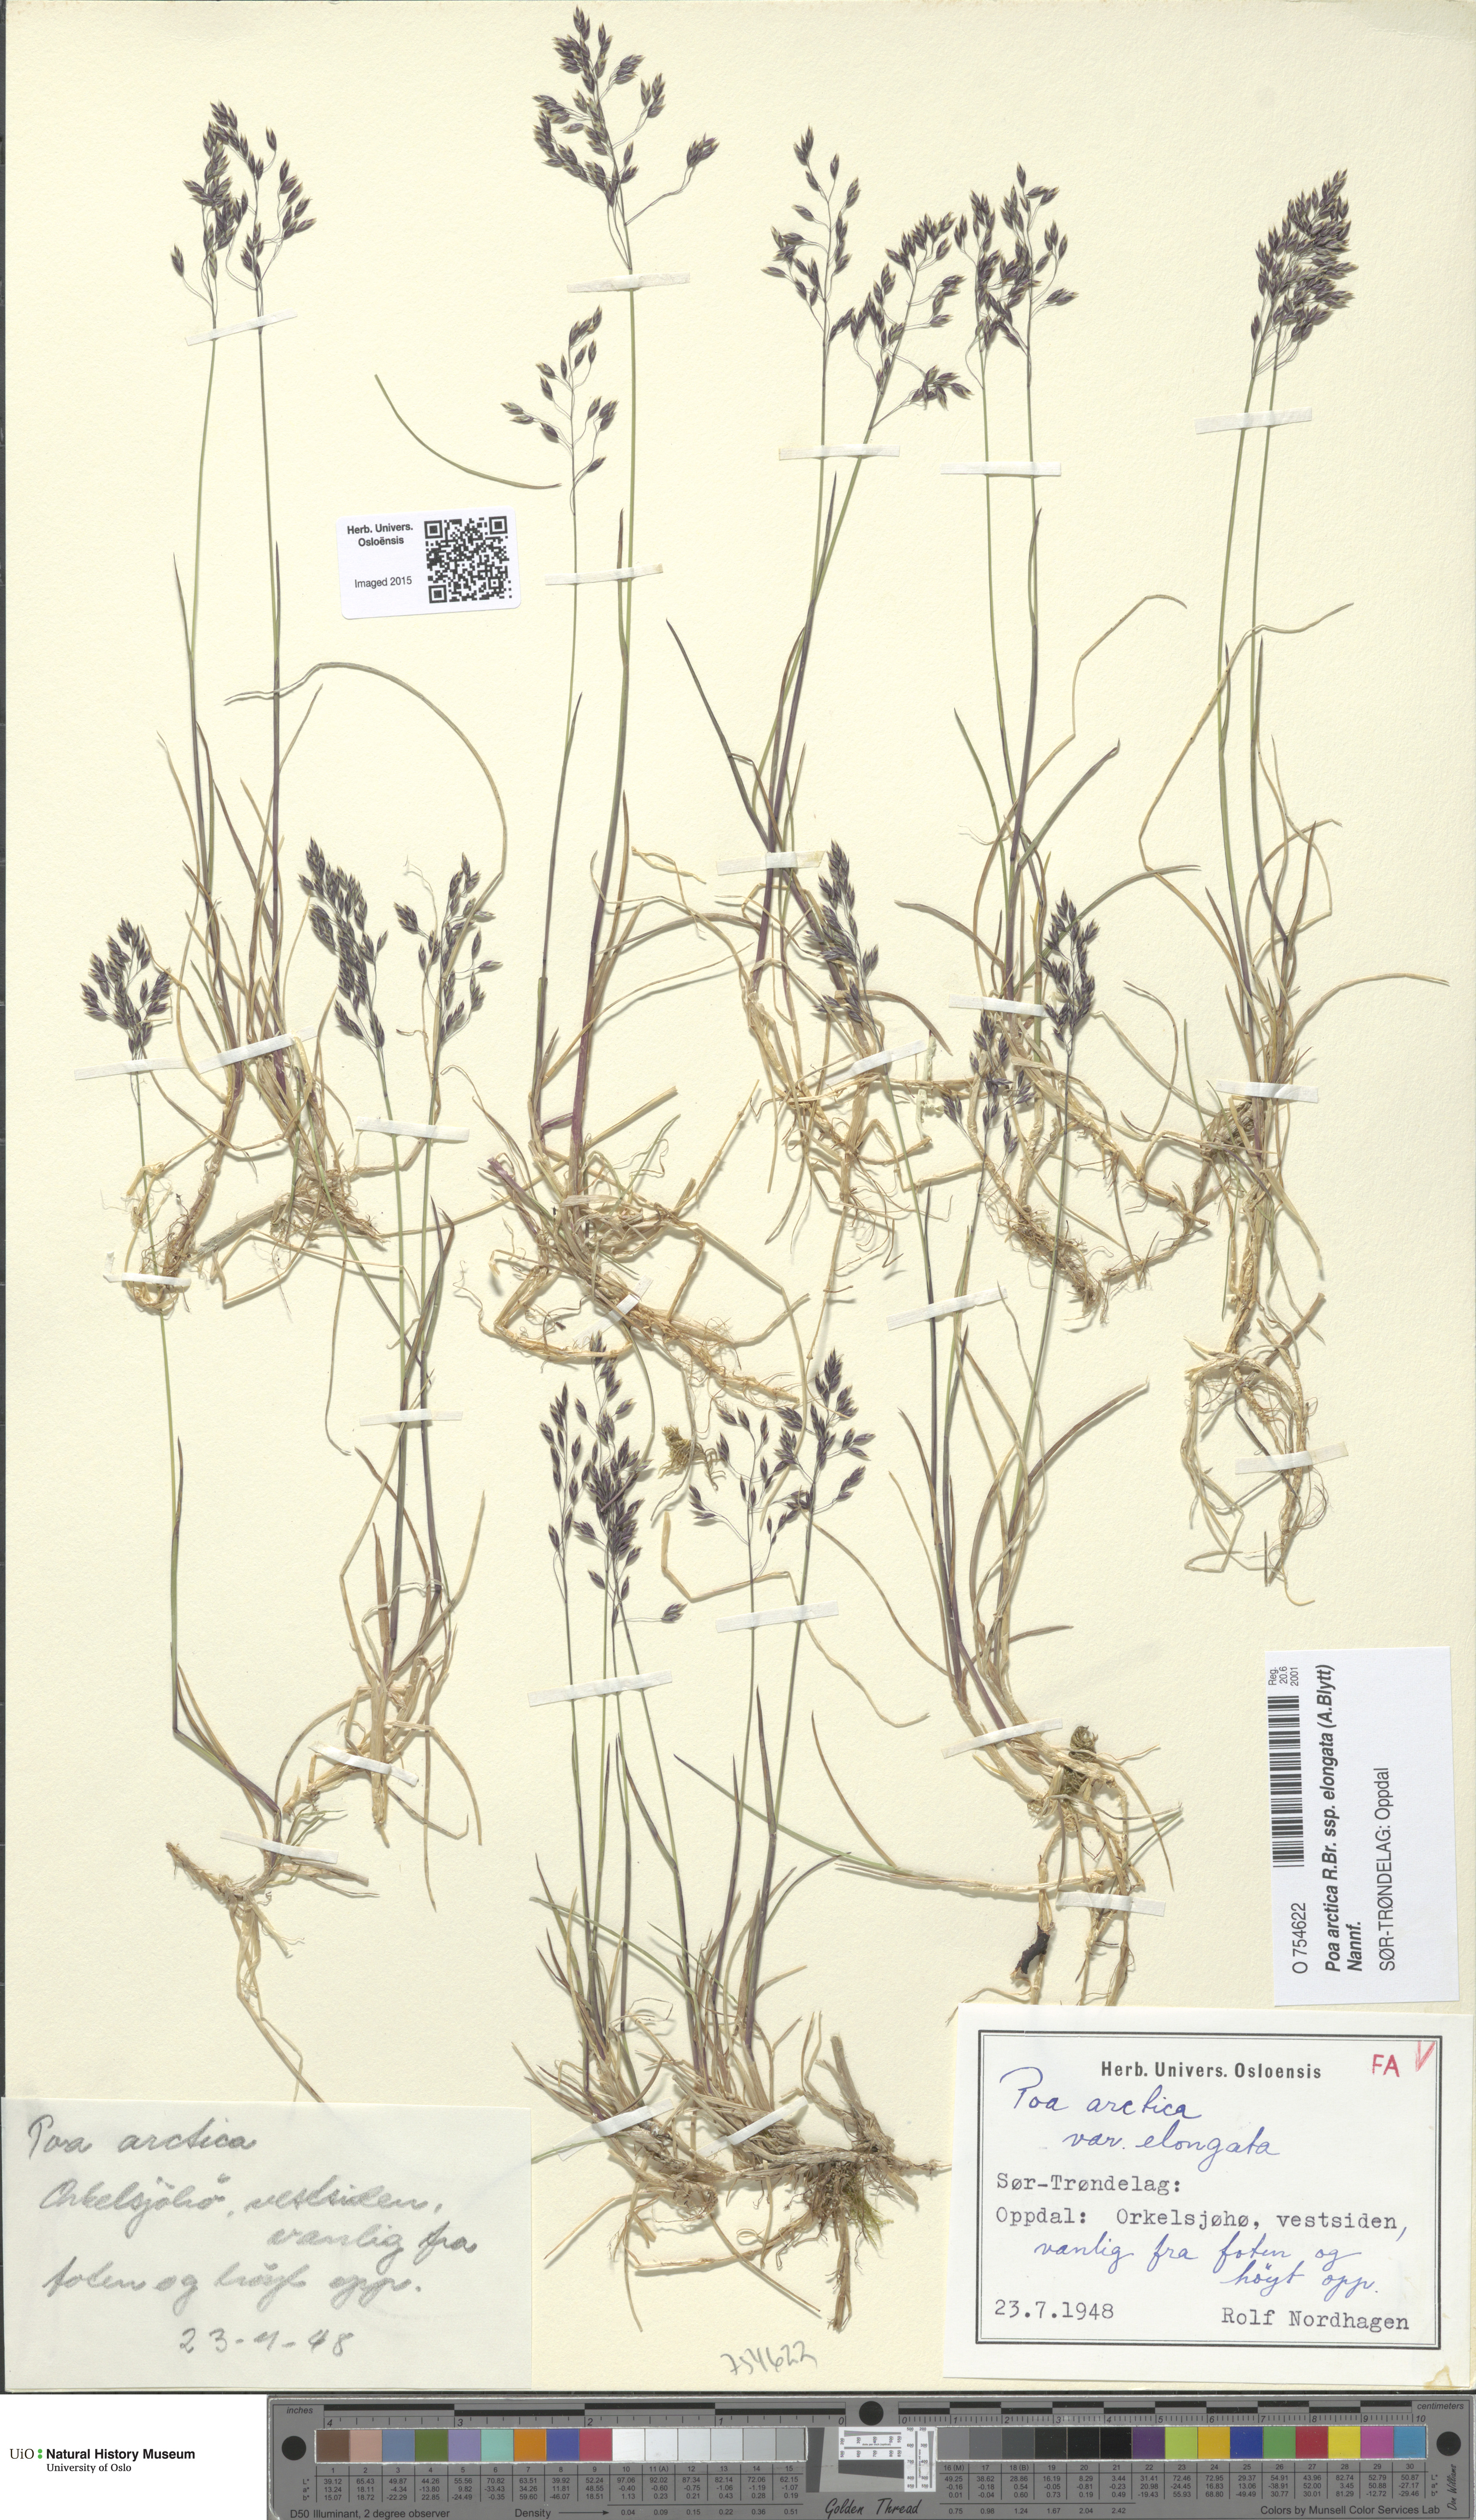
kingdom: Plantae
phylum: Tracheophyta
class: Liliopsida
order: Poales
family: Poaceae
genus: Poa
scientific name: Poa arctica
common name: Arctic bluegrass
